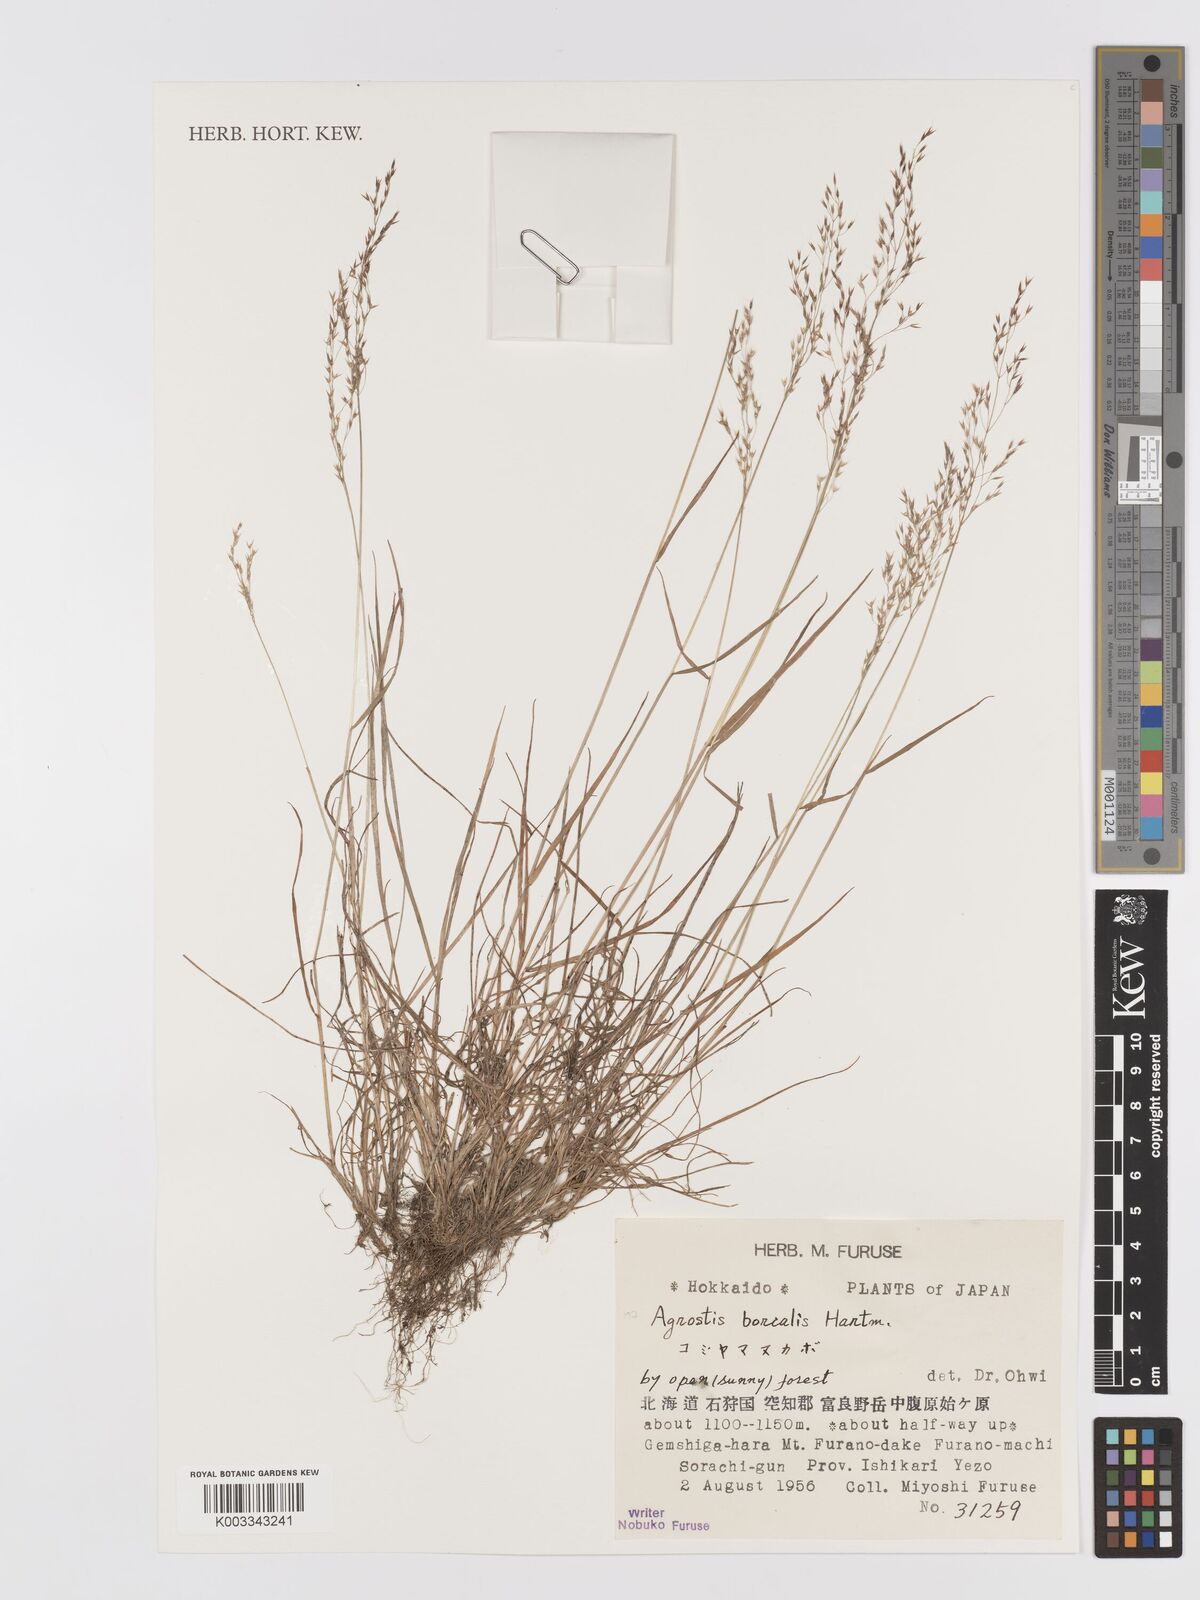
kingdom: Plantae
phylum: Tracheophyta
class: Liliopsida
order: Poales
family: Poaceae
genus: Agrostis
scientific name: Agrostis mertensii
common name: Northern bent
